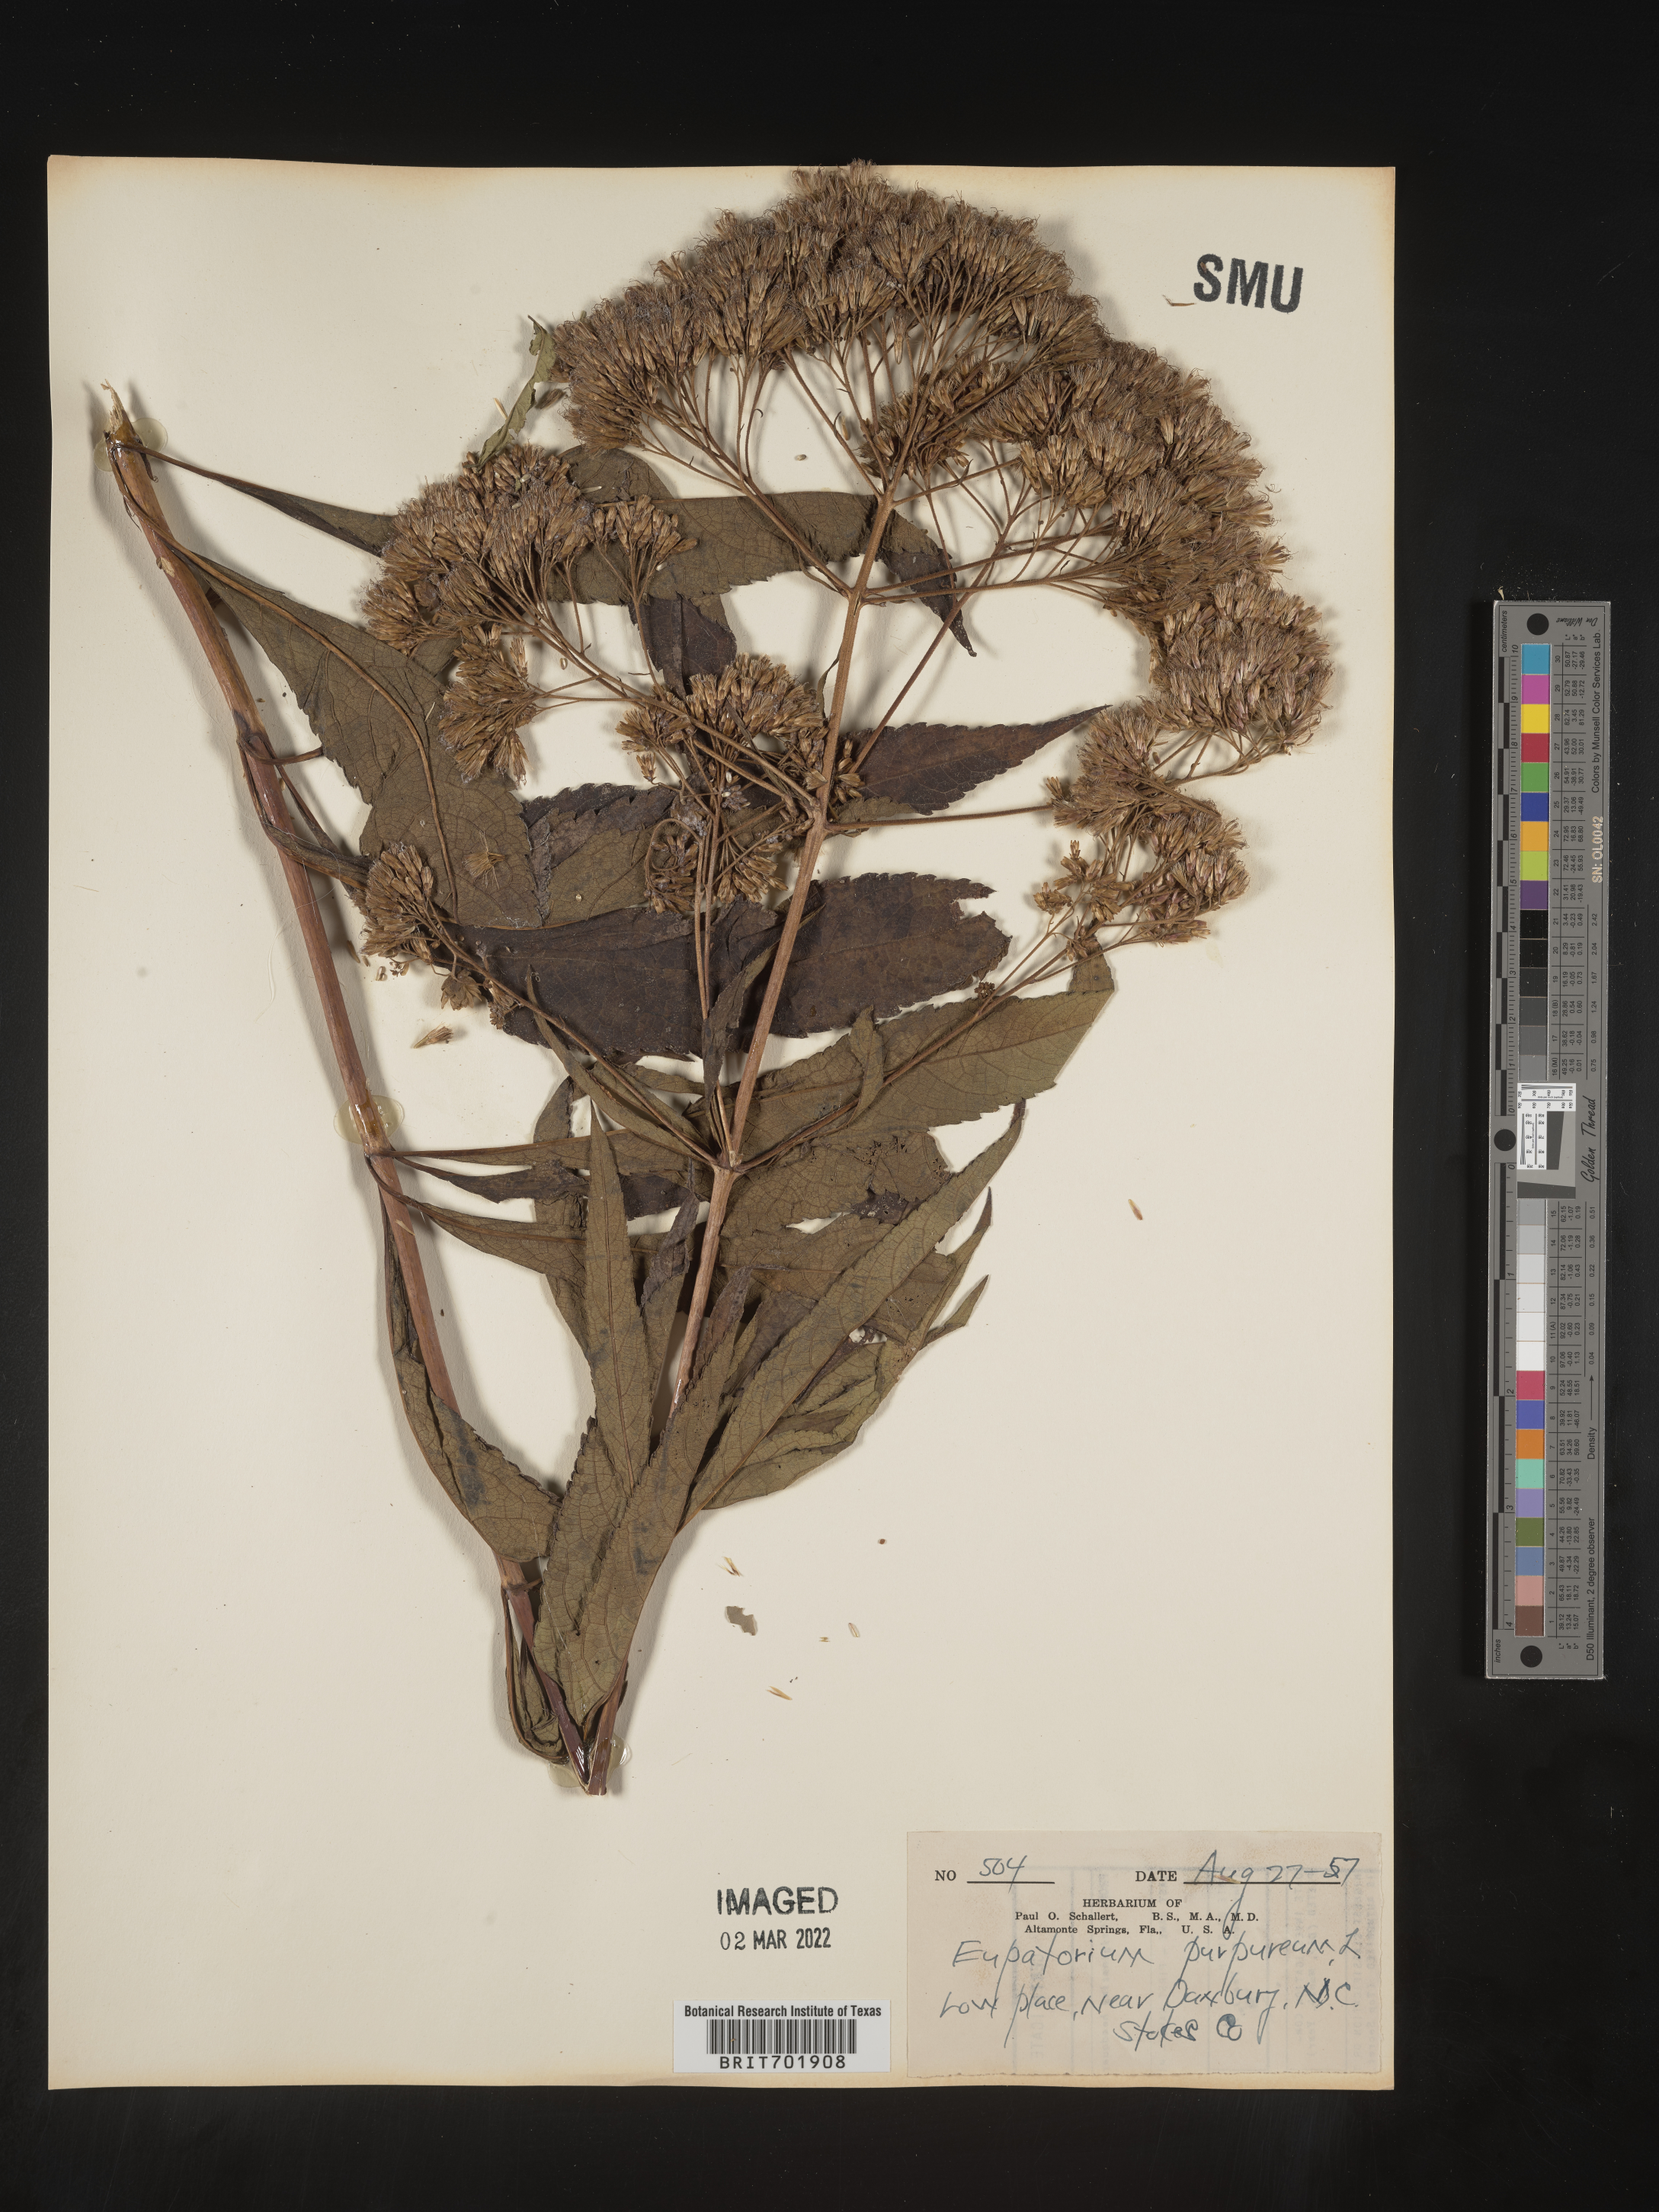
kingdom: Plantae
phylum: Tracheophyta
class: Magnoliopsida
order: Asterales
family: Asteraceae
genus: Eupatorium
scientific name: Eupatorium quaternum
